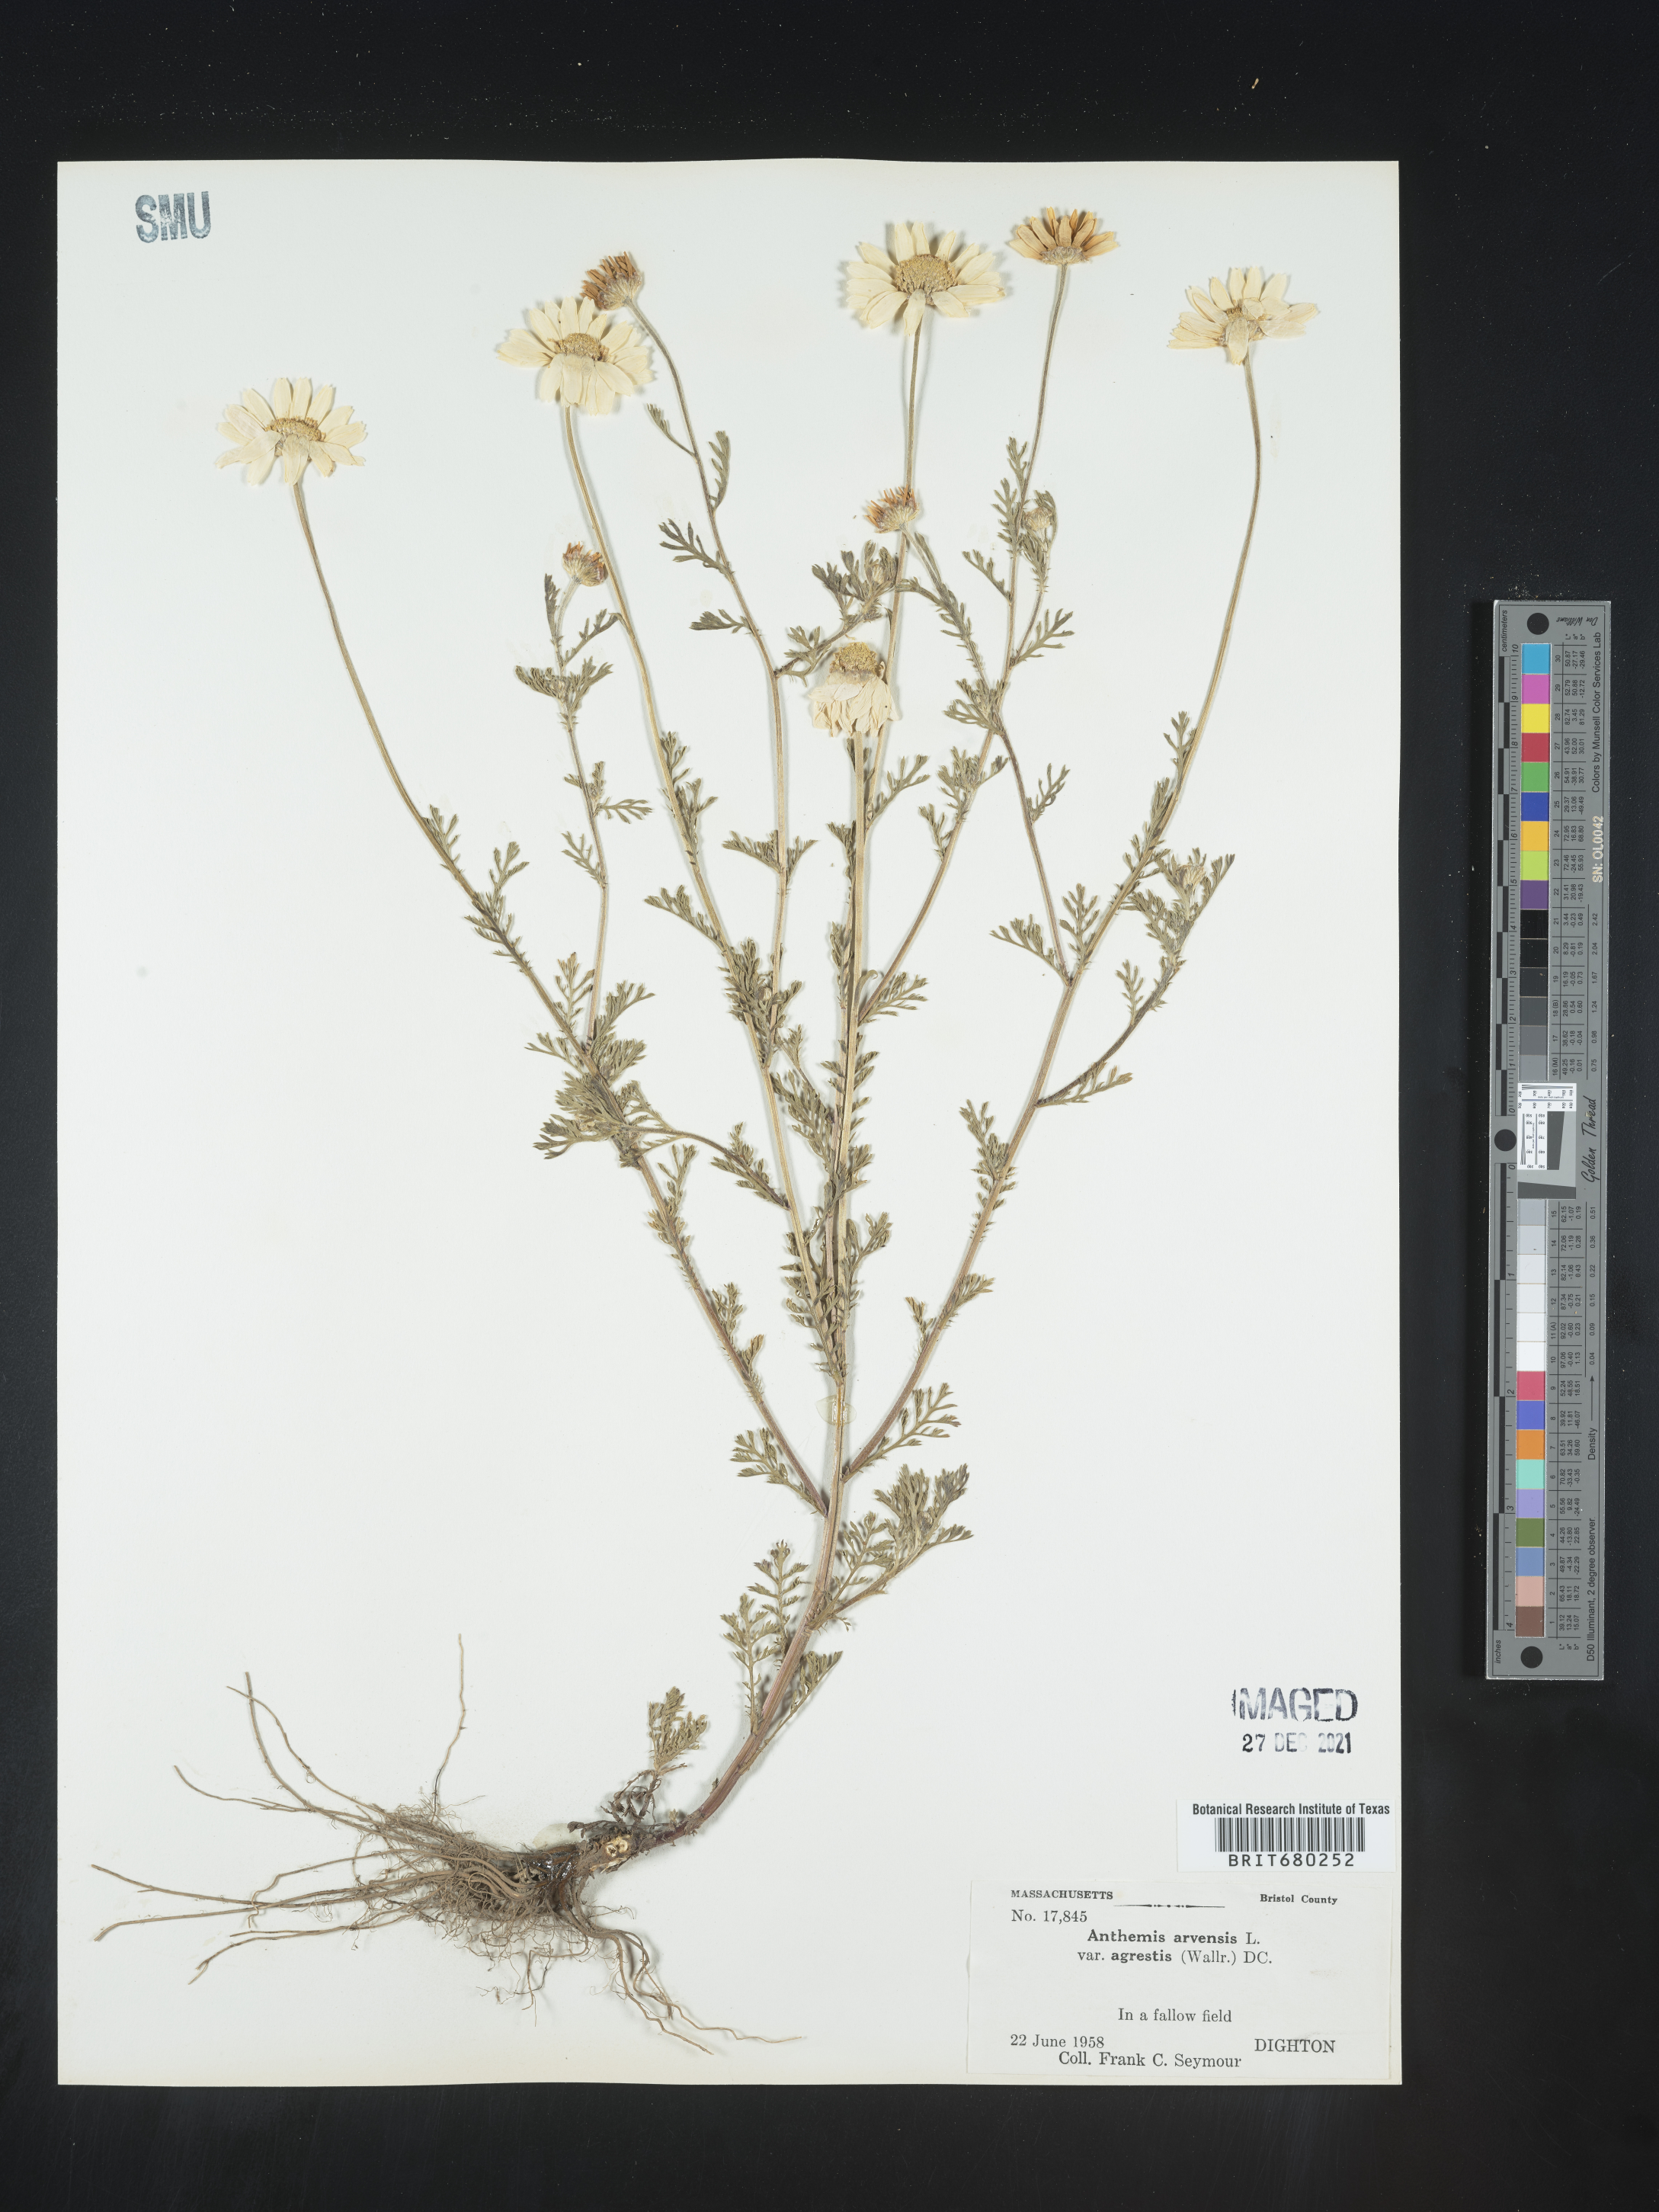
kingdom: Plantae
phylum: Tracheophyta
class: Magnoliopsida
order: Asterales
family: Asteraceae
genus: Anthemis
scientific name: Anthemis arvensis
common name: Corn chamomile
